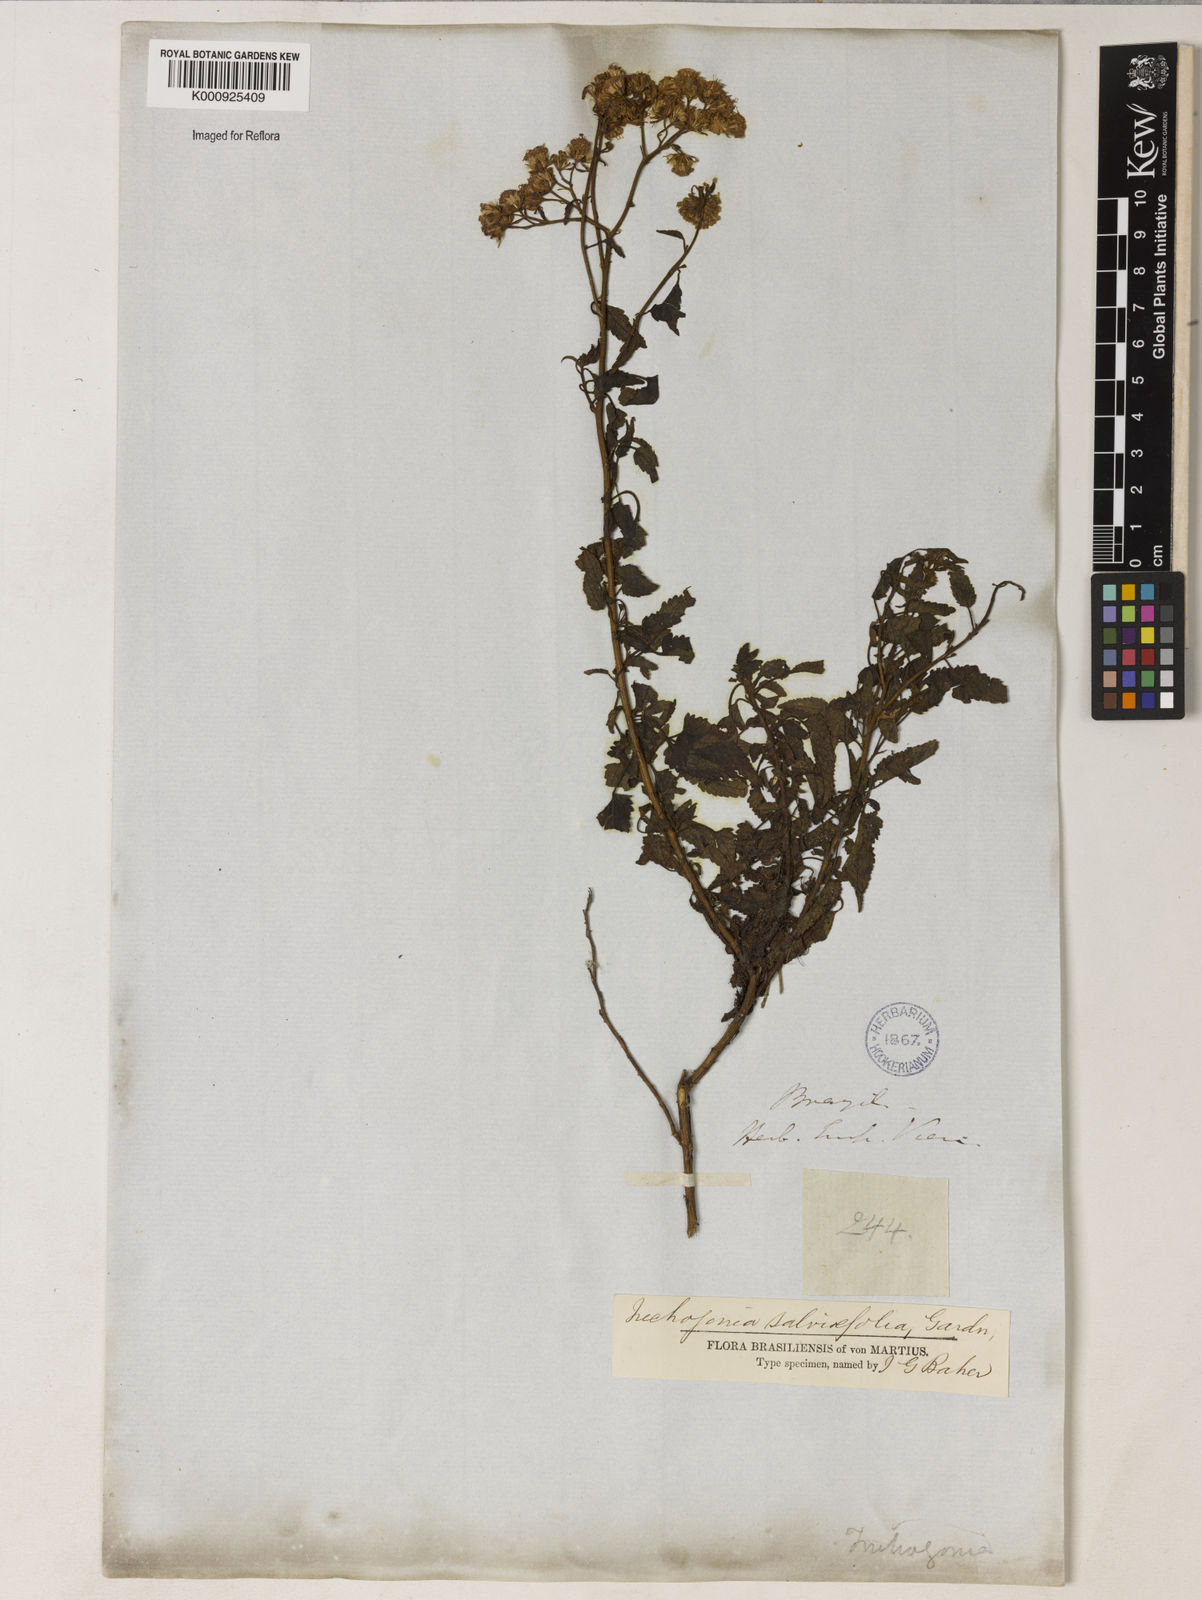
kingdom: Plantae
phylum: Tracheophyta
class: Magnoliopsida
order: Asterales
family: Asteraceae
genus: Trichogonia
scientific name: Trichogonia
